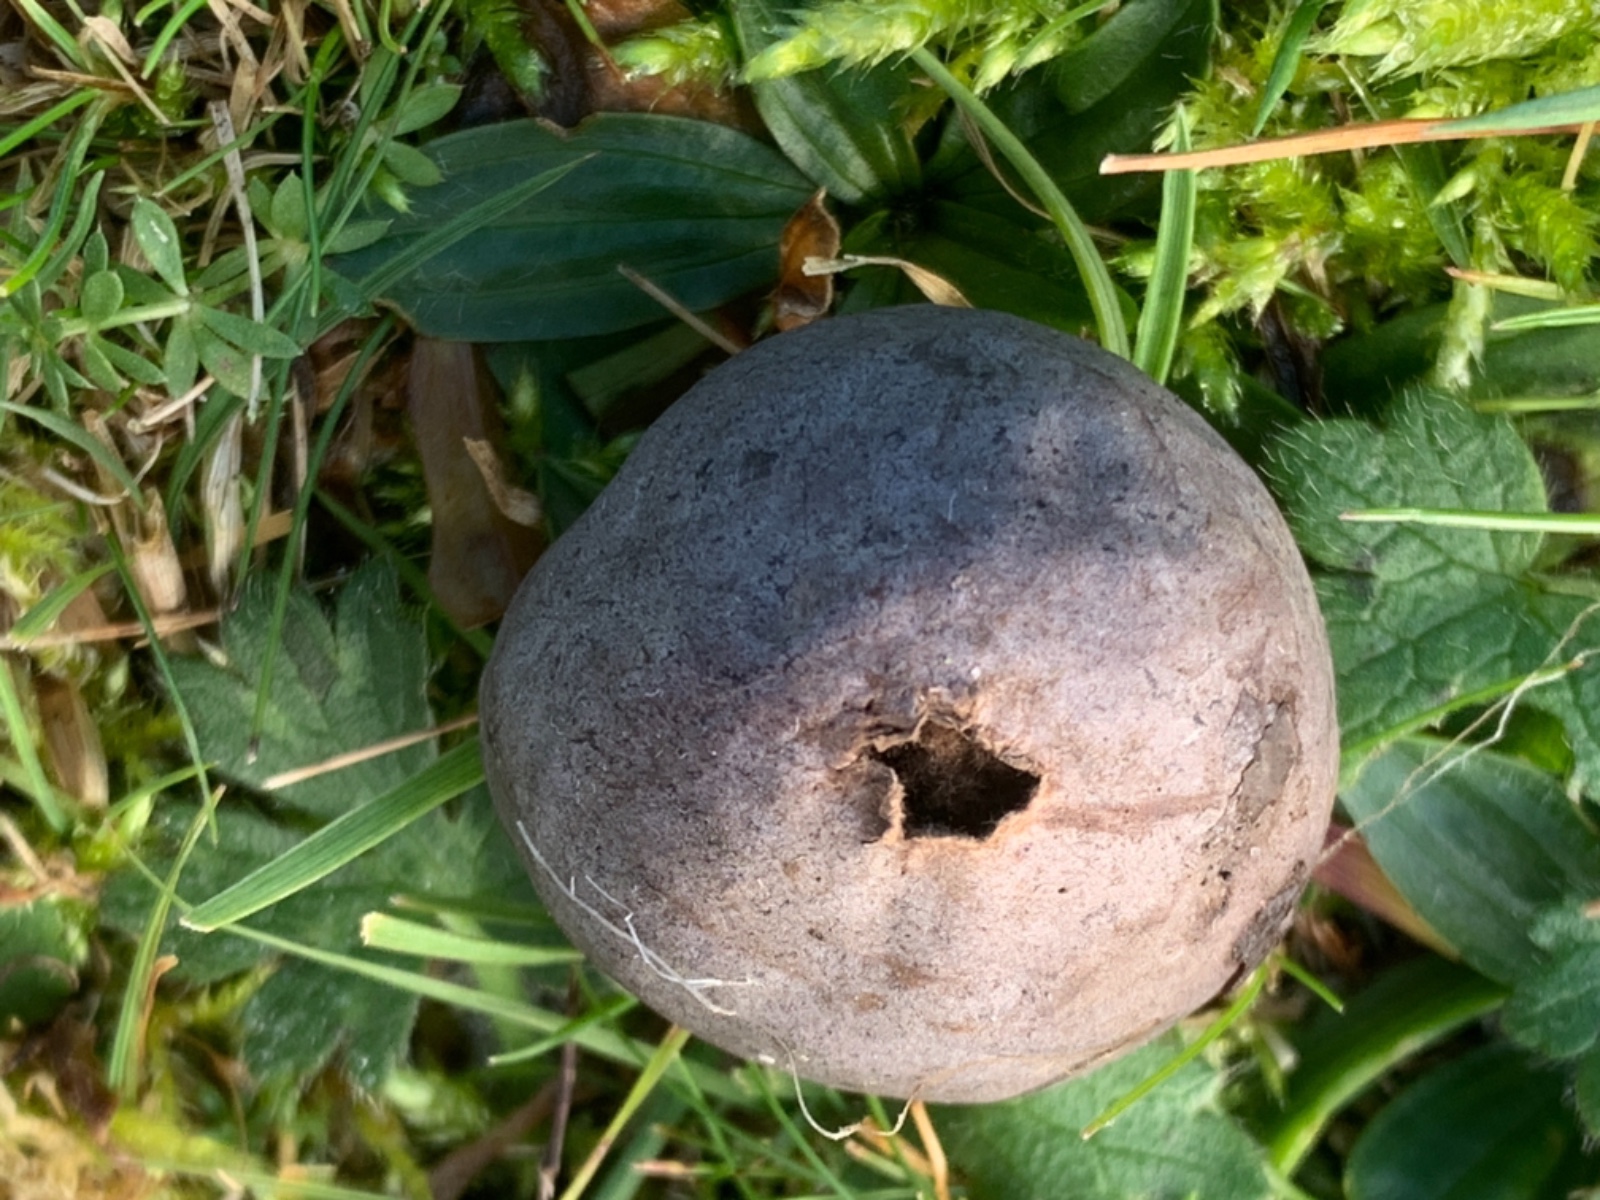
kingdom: Fungi
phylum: Basidiomycota
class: Agaricomycetes
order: Agaricales
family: Lycoperdaceae
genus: Bovista
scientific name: Bovista plumbea
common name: blygrå bovist
